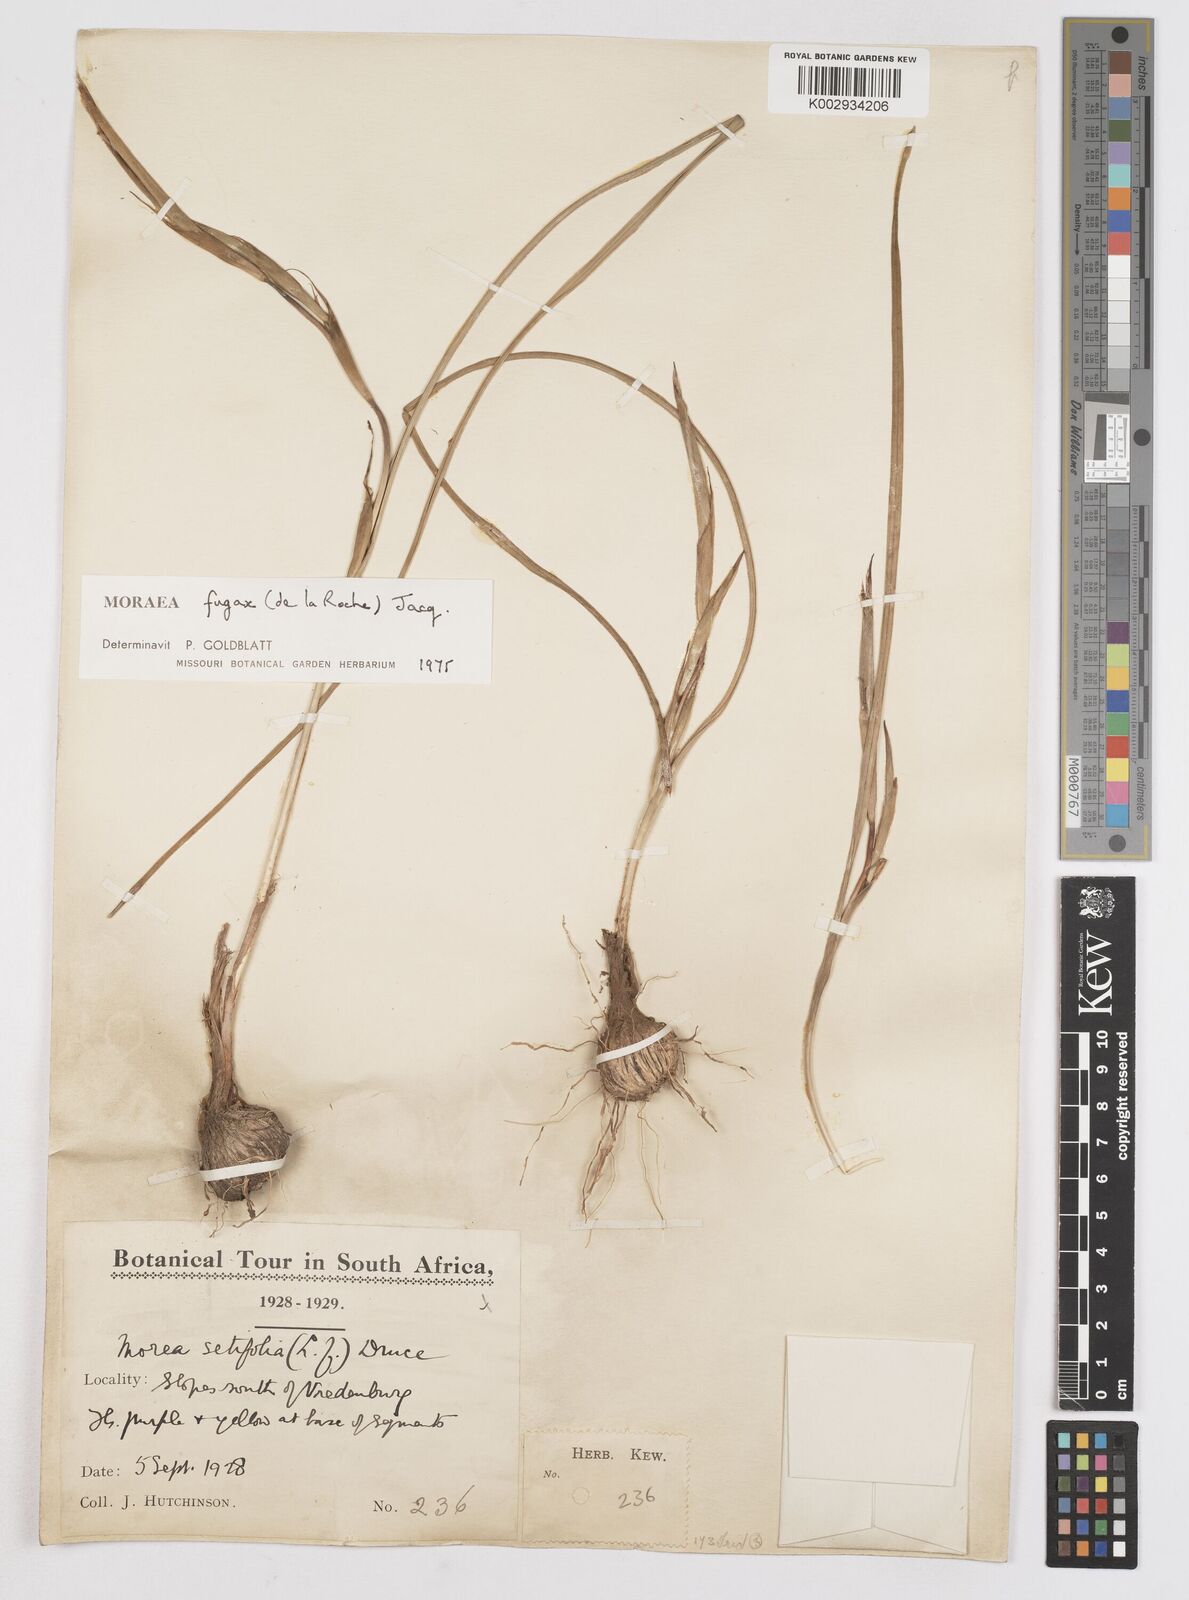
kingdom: Plantae
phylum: Tracheophyta
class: Liliopsida
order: Asparagales
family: Iridaceae
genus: Moraea
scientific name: Moraea fugax
